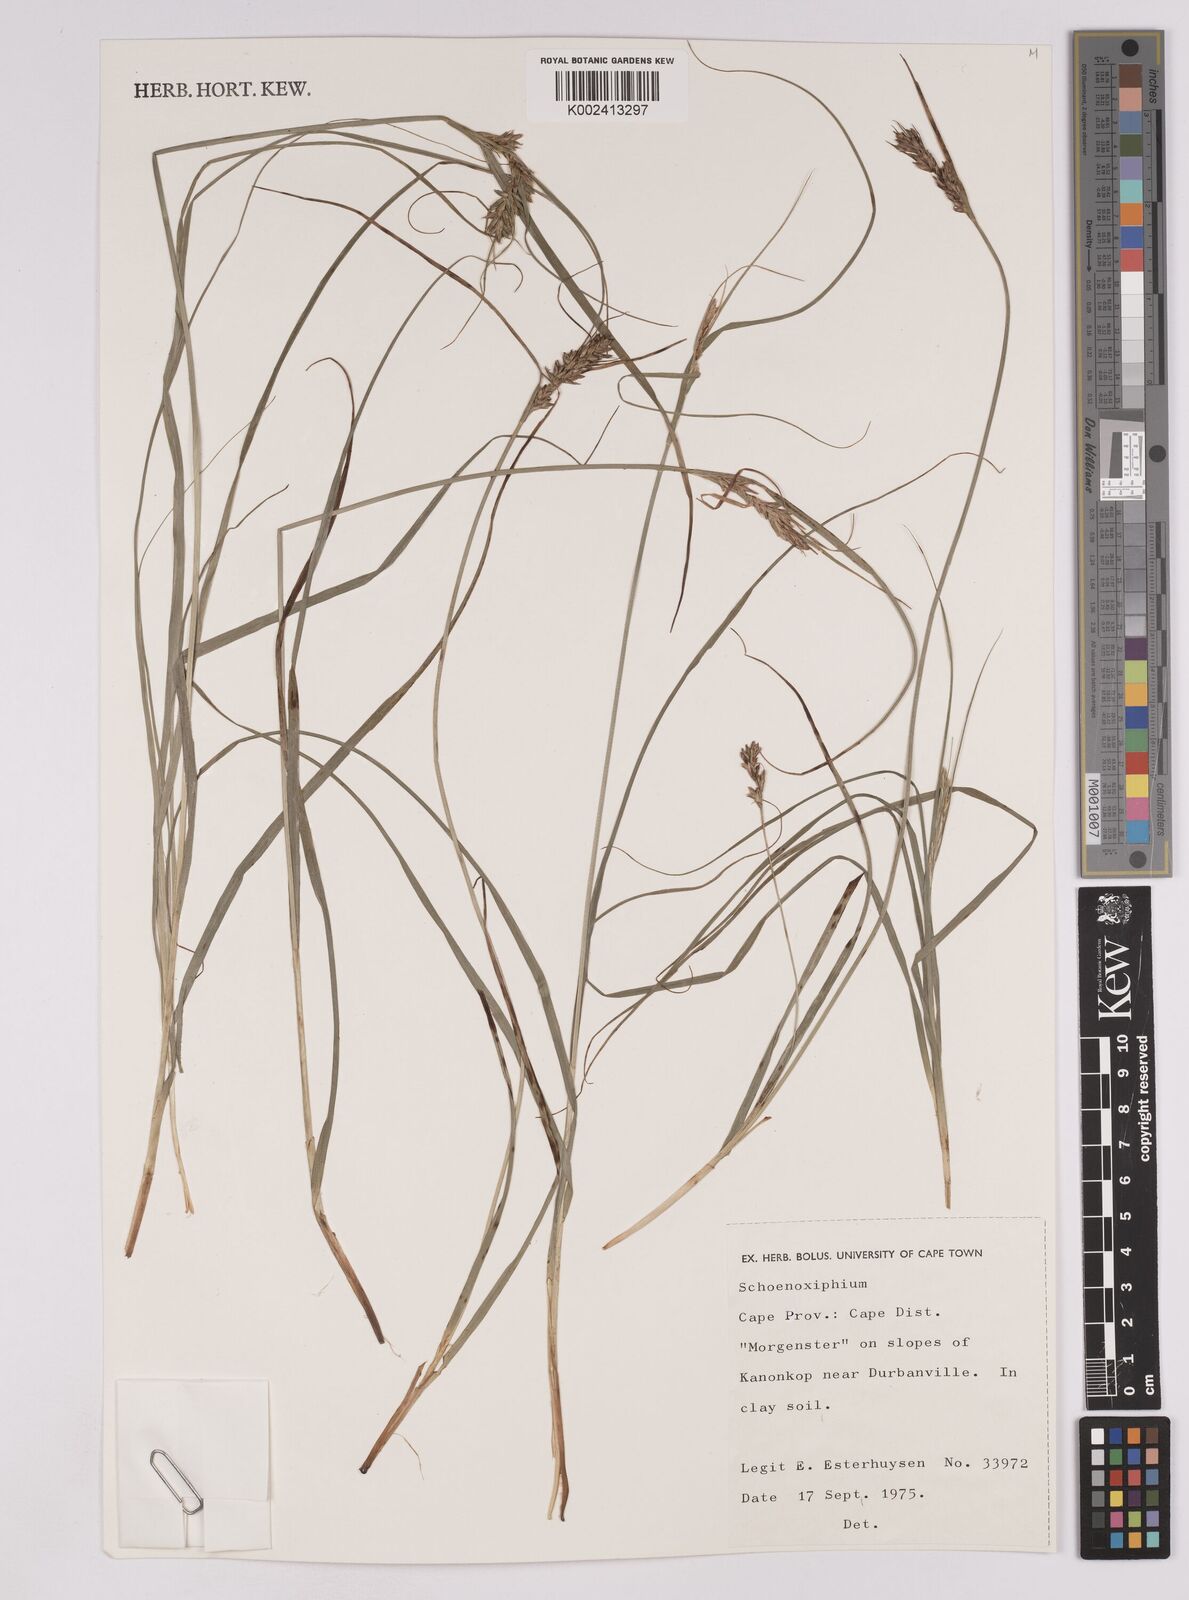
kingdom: Plantae
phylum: Tracheophyta
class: Liliopsida
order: Poales
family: Cyperaceae
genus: Carex
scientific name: Carex
